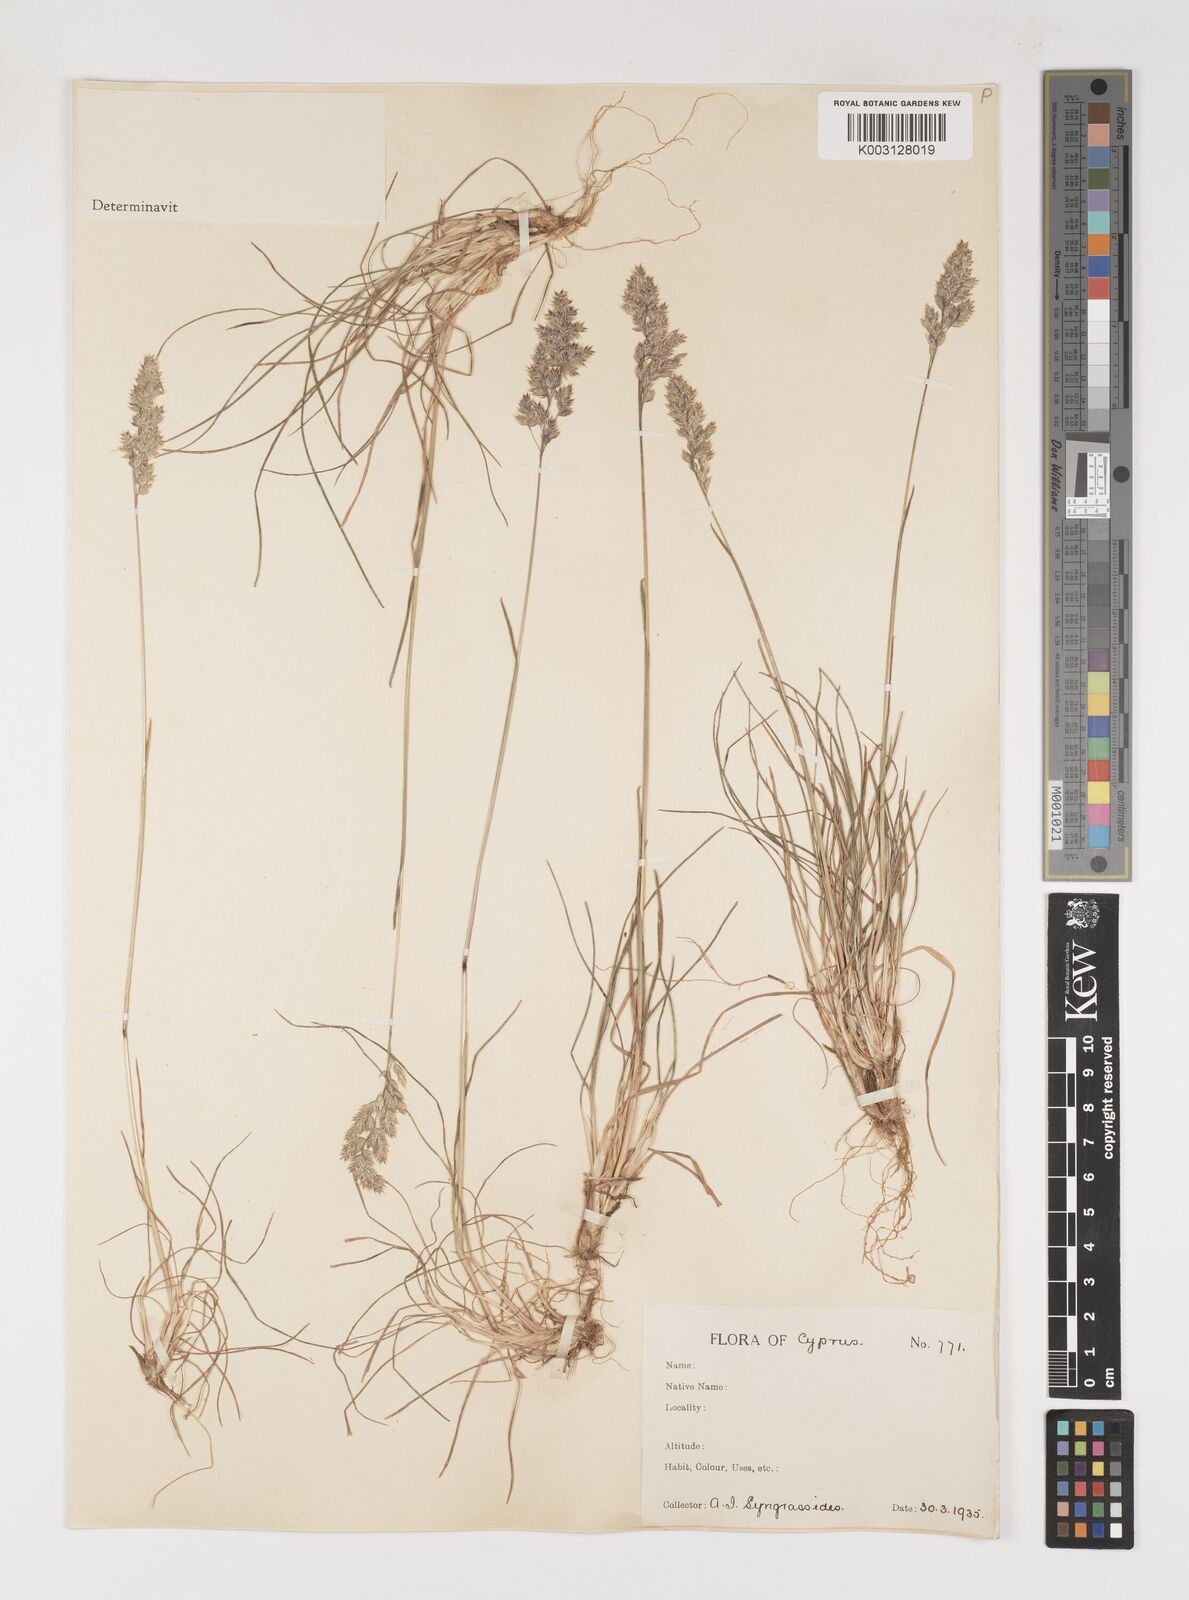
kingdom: Plantae
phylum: Tracheophyta
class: Liliopsida
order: Poales
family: Poaceae
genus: Poa
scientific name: Poa bulbosa
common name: Bulbous bluegrass
